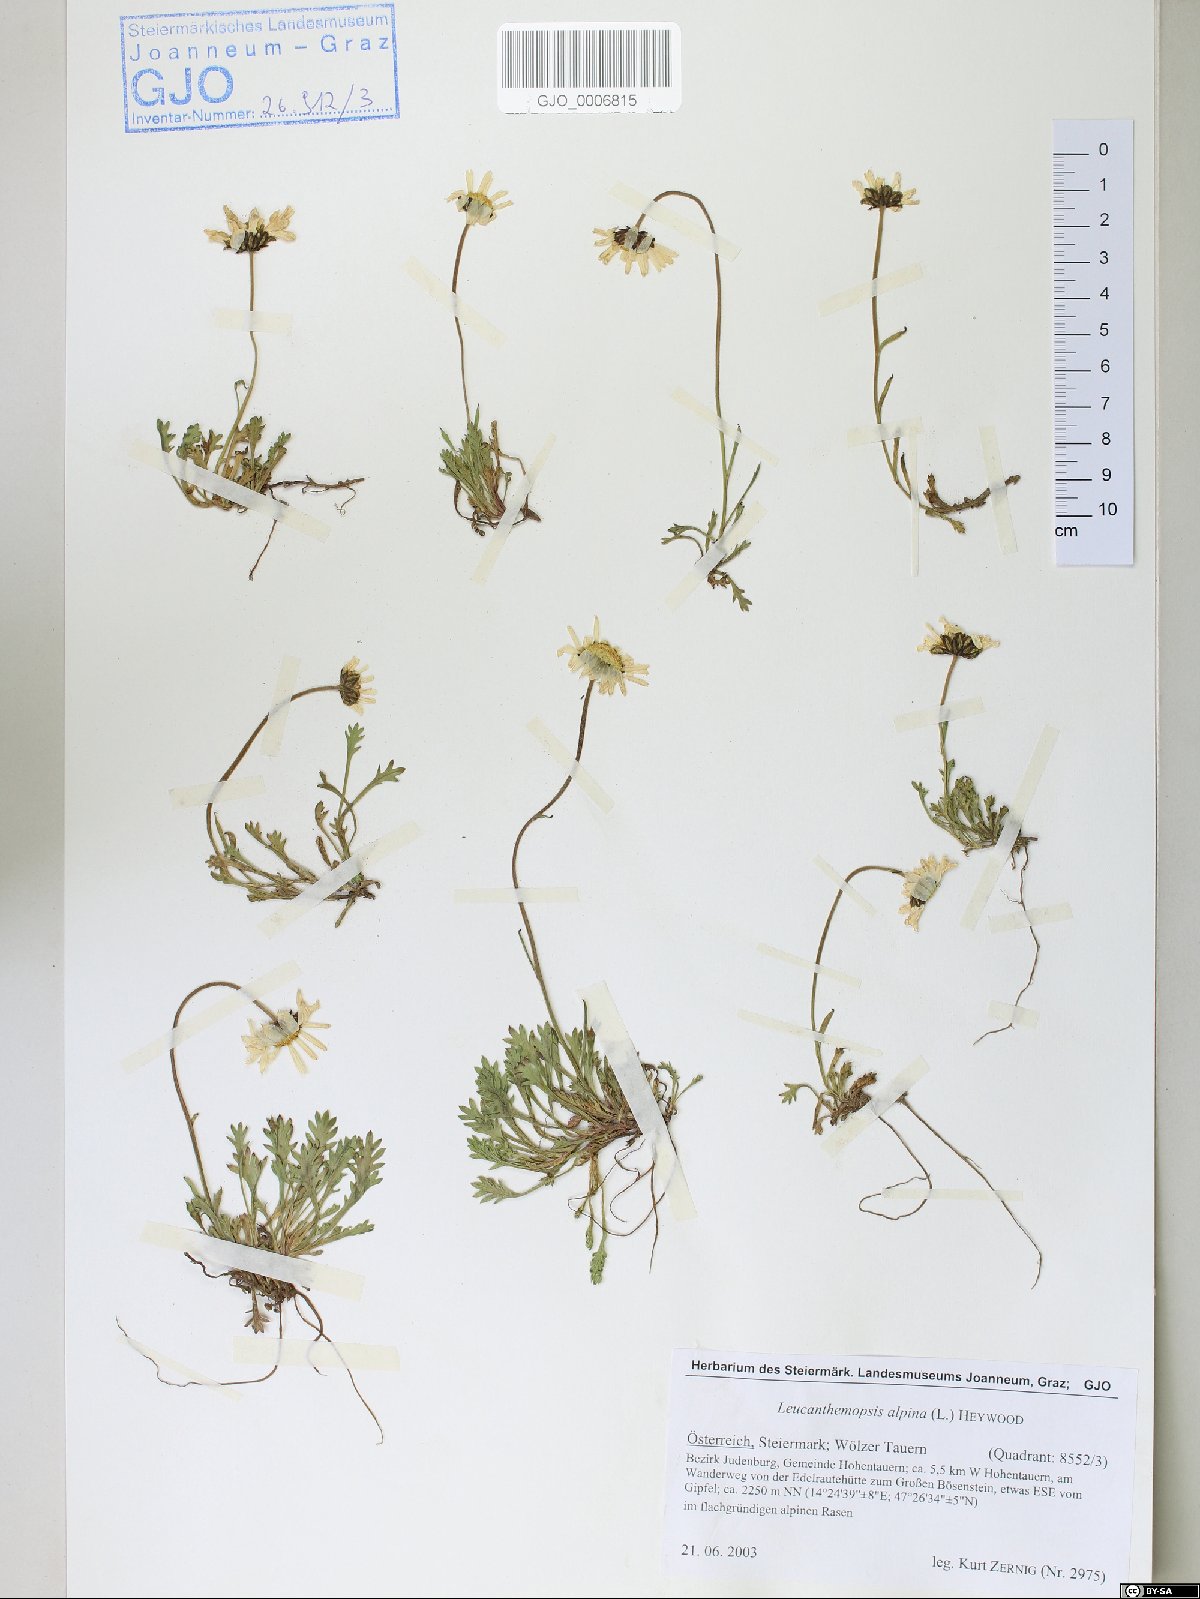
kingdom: Plantae
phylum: Tracheophyta
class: Magnoliopsida
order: Asterales
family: Asteraceae
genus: Leucanthemopsis
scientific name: Leucanthemopsis alpina
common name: Alpine moon daisy
